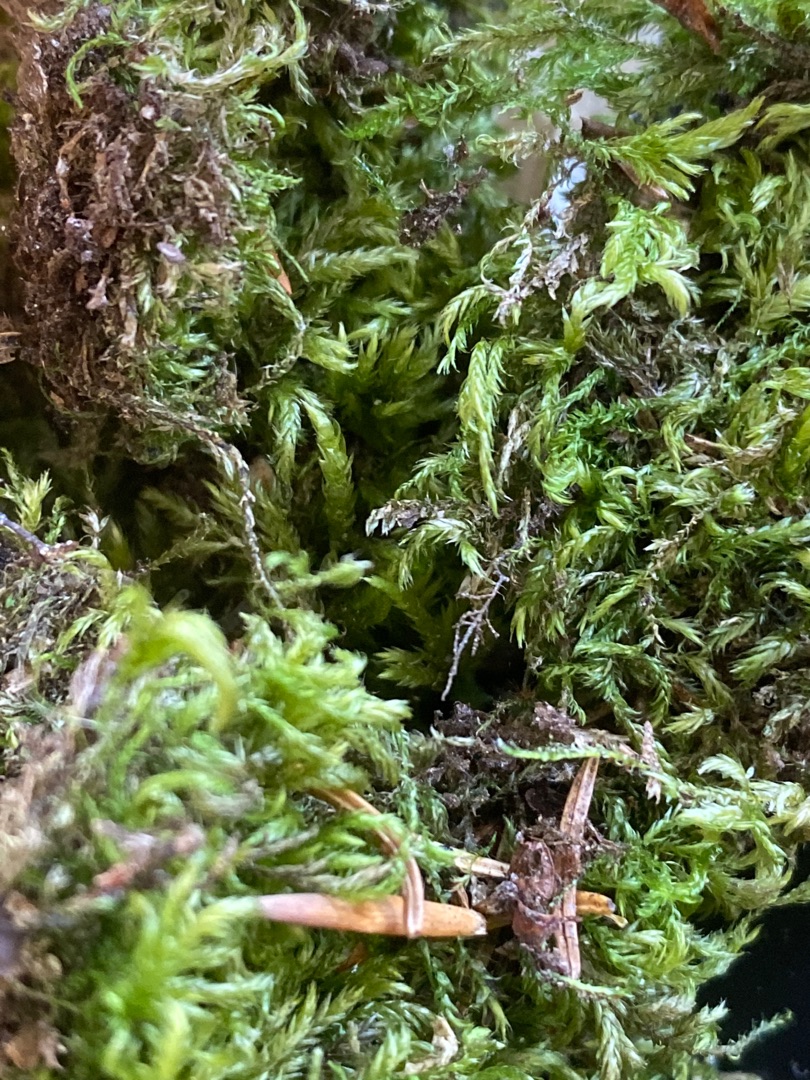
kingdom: Plantae
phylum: Bryophyta
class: Bryopsida
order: Hypnales
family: Lembophyllaceae
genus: Pseudisothecium
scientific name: Pseudisothecium myosuroides
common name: Slank stammemos
